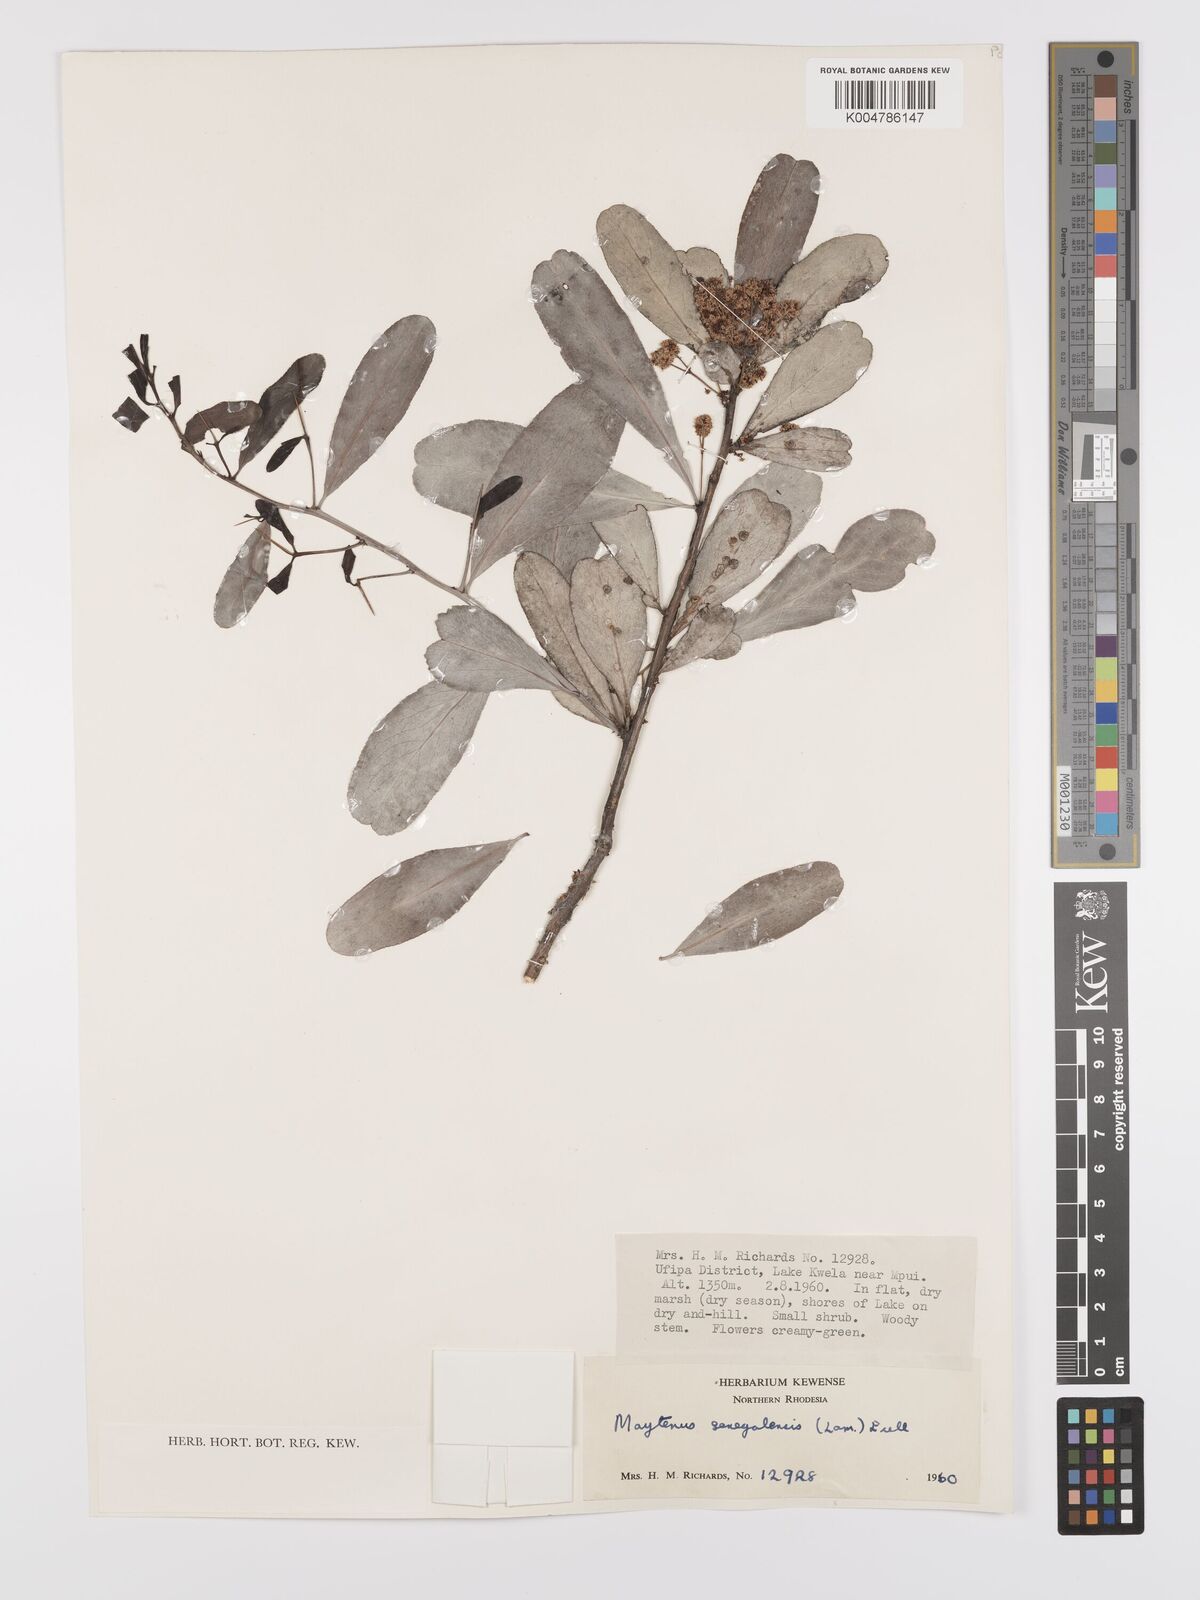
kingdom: Plantae
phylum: Tracheophyta
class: Magnoliopsida
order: Celastrales
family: Celastraceae
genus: Gymnosporia
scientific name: Gymnosporia senegalensis
